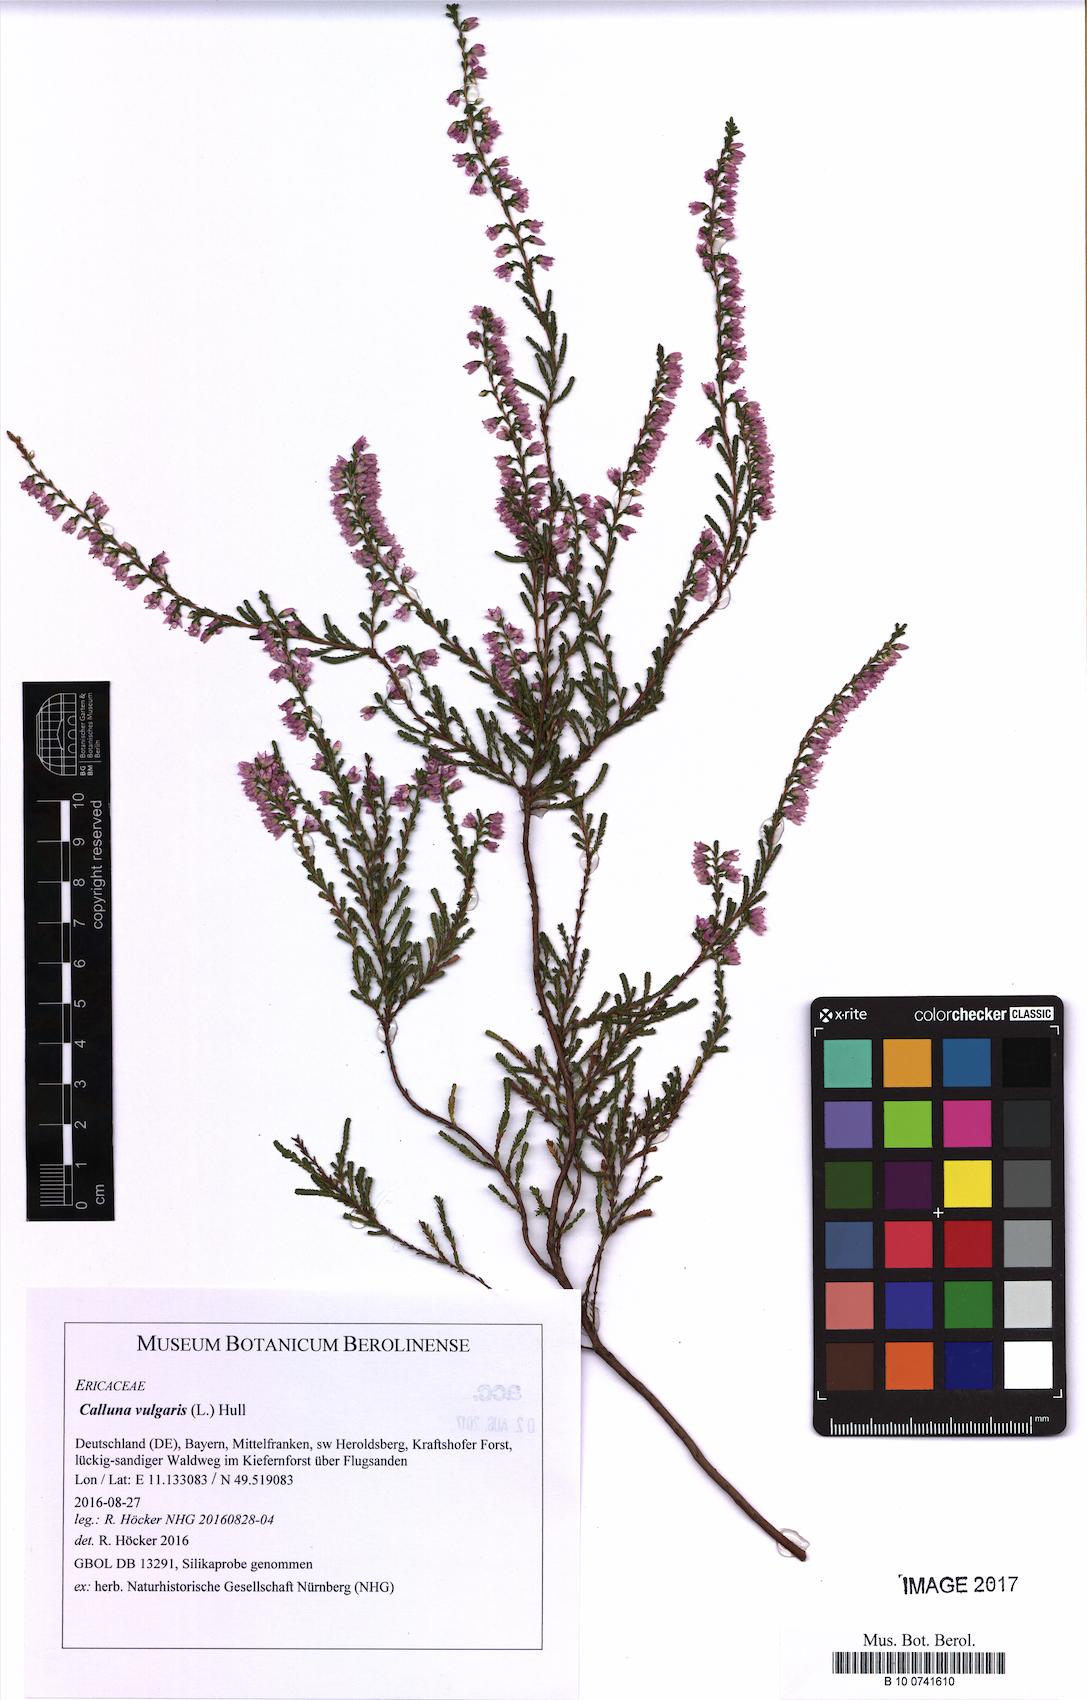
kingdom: Plantae
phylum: Tracheophyta
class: Magnoliopsida
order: Ericales
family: Ericaceae
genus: Calluna
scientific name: Calluna vulgaris
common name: Heather
